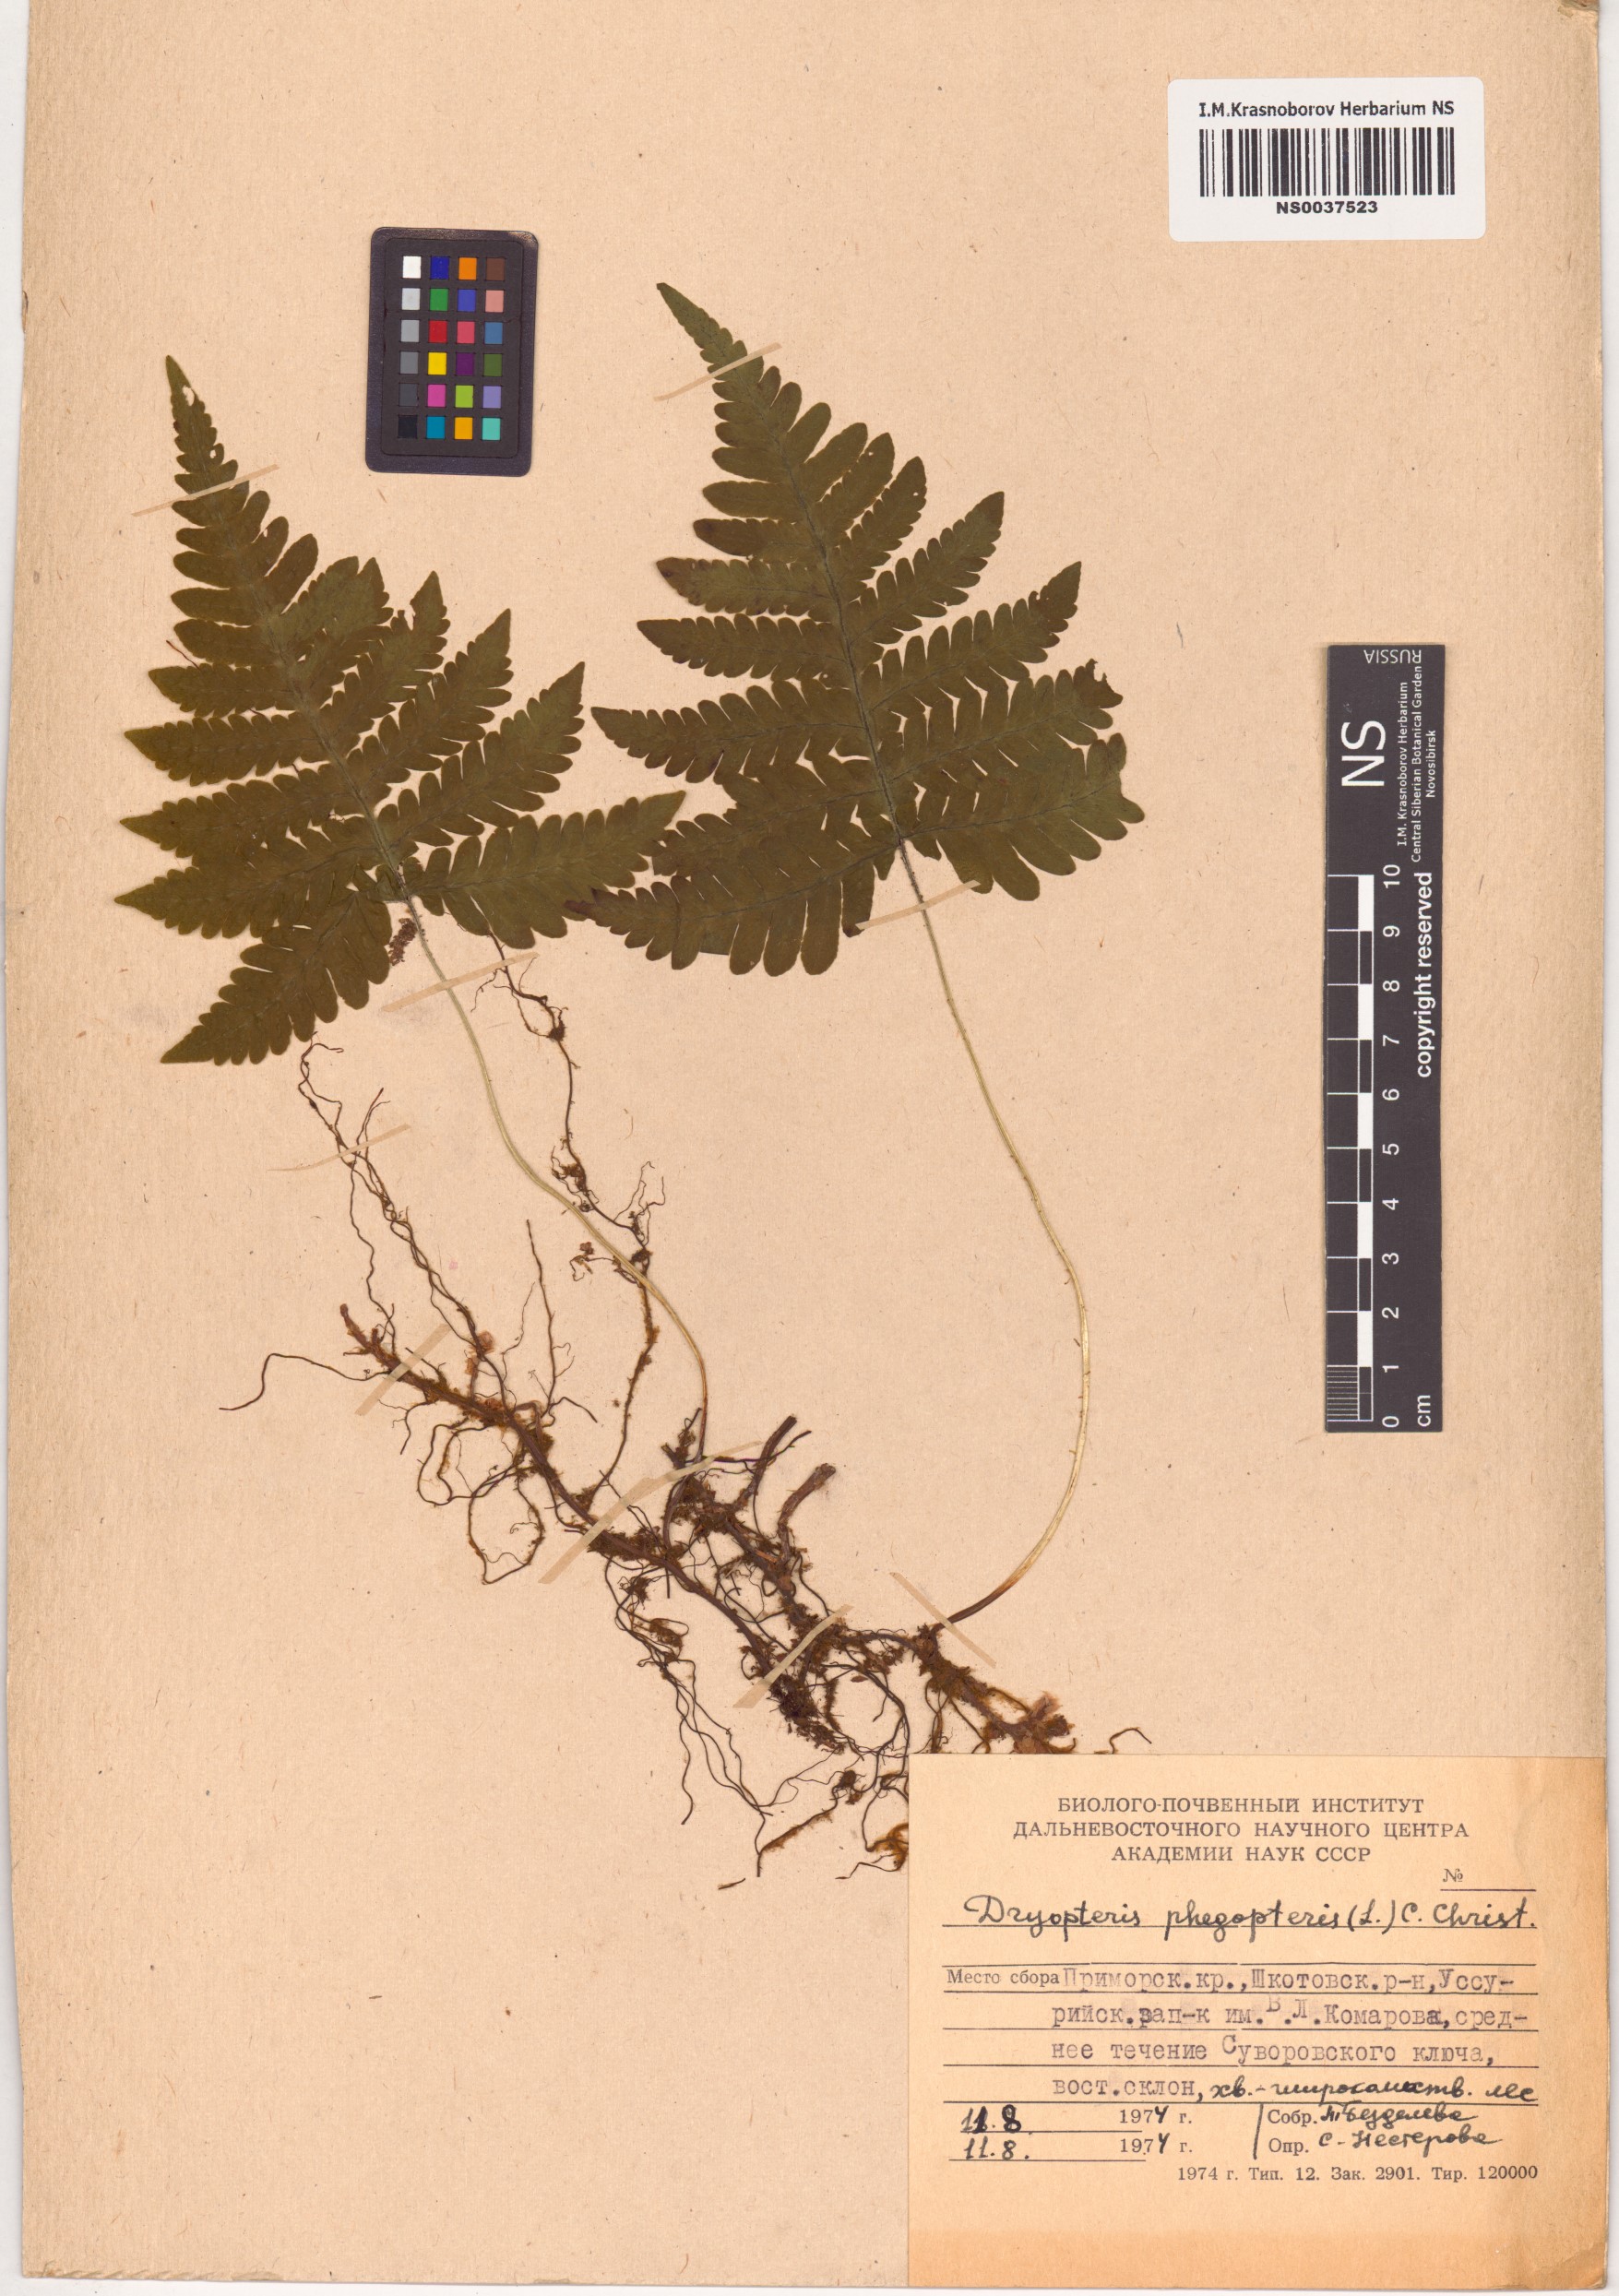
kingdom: Plantae
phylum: Tracheophyta
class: Polypodiopsida
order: Polypodiales
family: Thelypteridaceae
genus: Phegopteris
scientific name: Phegopteris connectilis
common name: Beech fern
